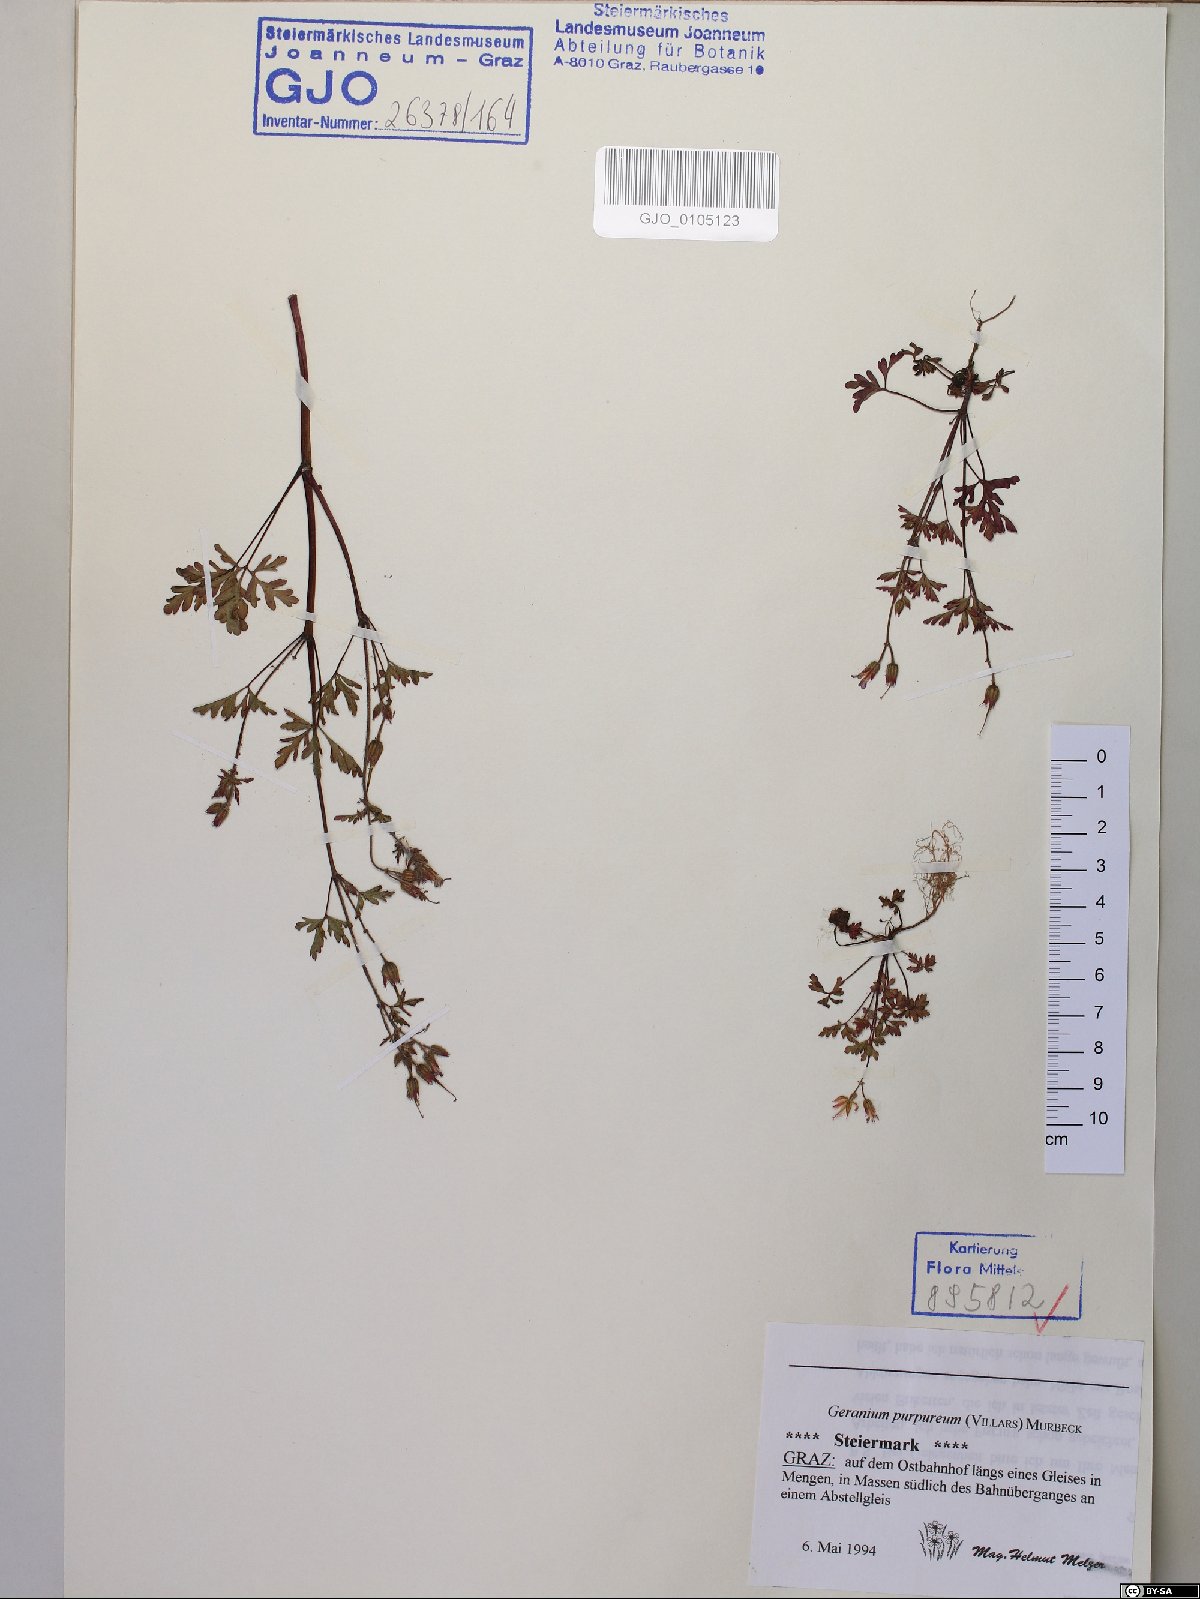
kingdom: Plantae
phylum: Tracheophyta
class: Magnoliopsida
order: Geraniales
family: Geraniaceae
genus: Geranium
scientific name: Geranium purpureum
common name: Little-robin
